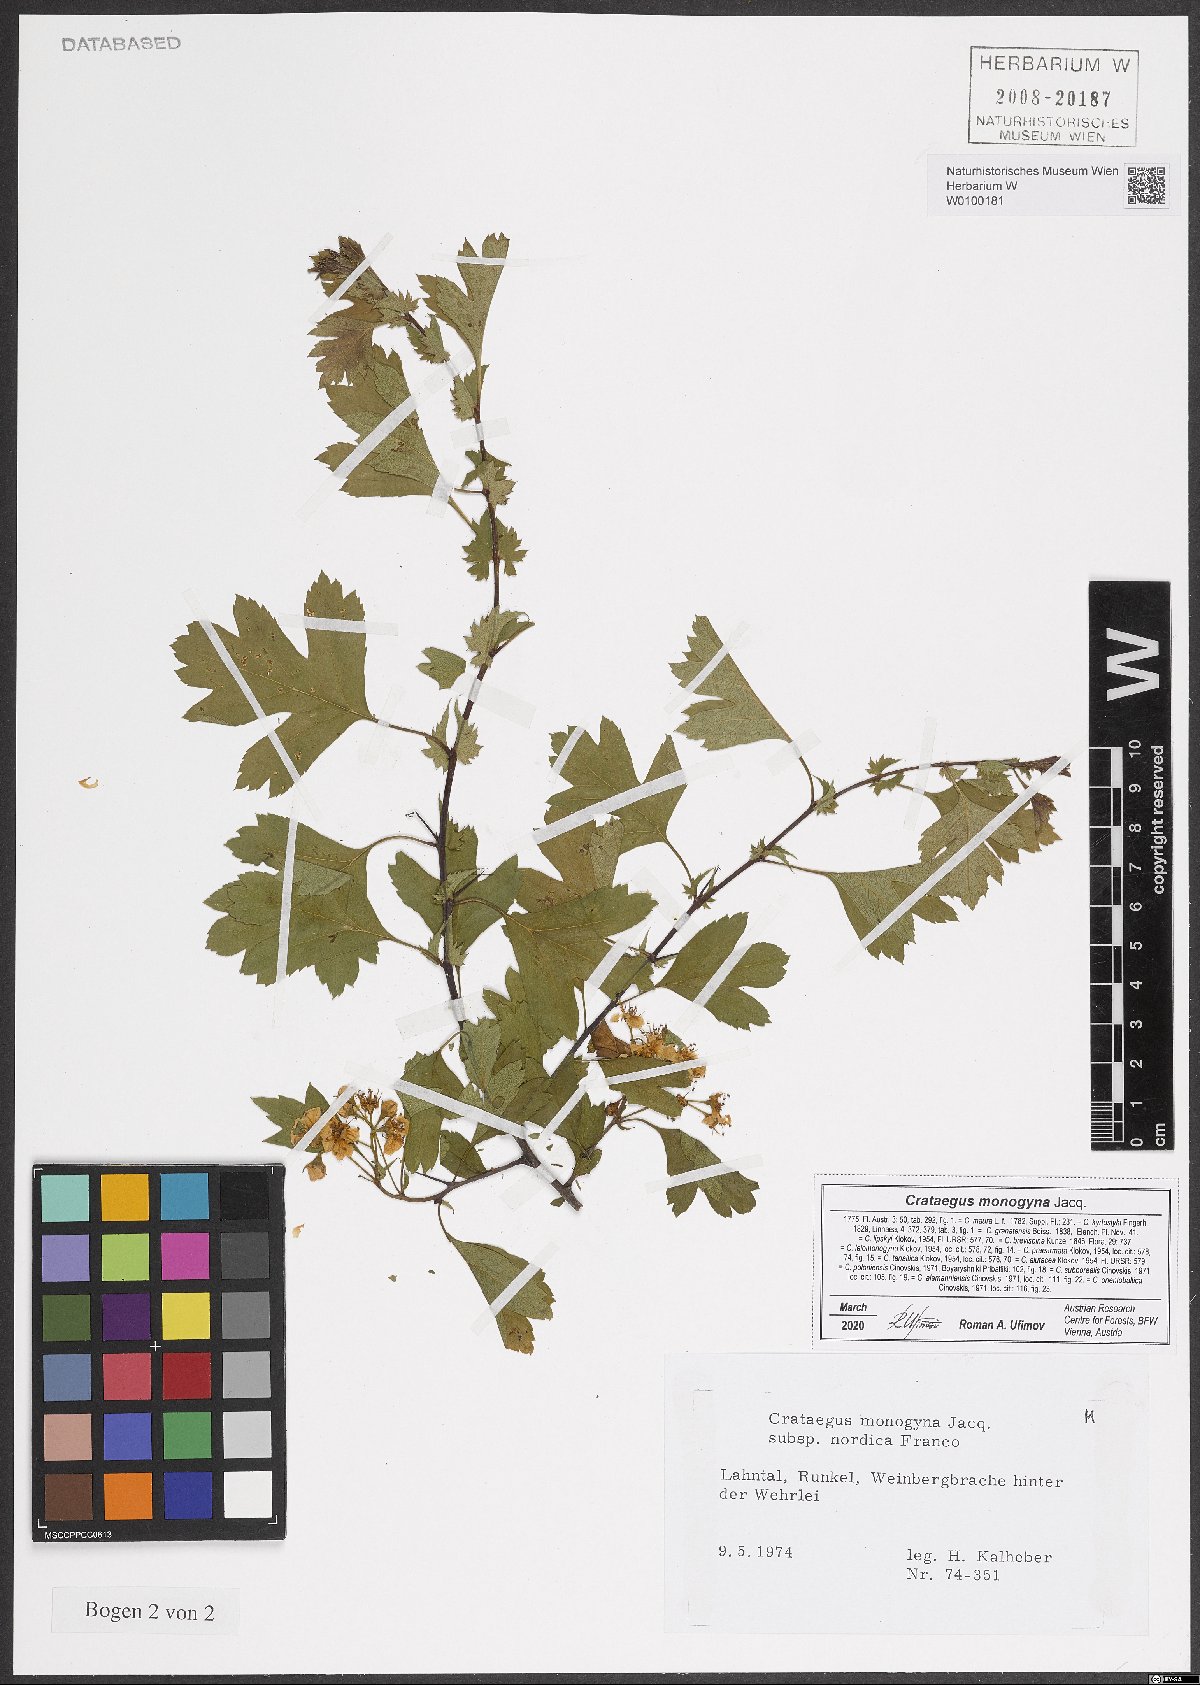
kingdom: Plantae
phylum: Tracheophyta
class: Magnoliopsida
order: Rosales
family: Rosaceae
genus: Crataegus
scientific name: Crataegus monogyna
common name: Hawthorn
